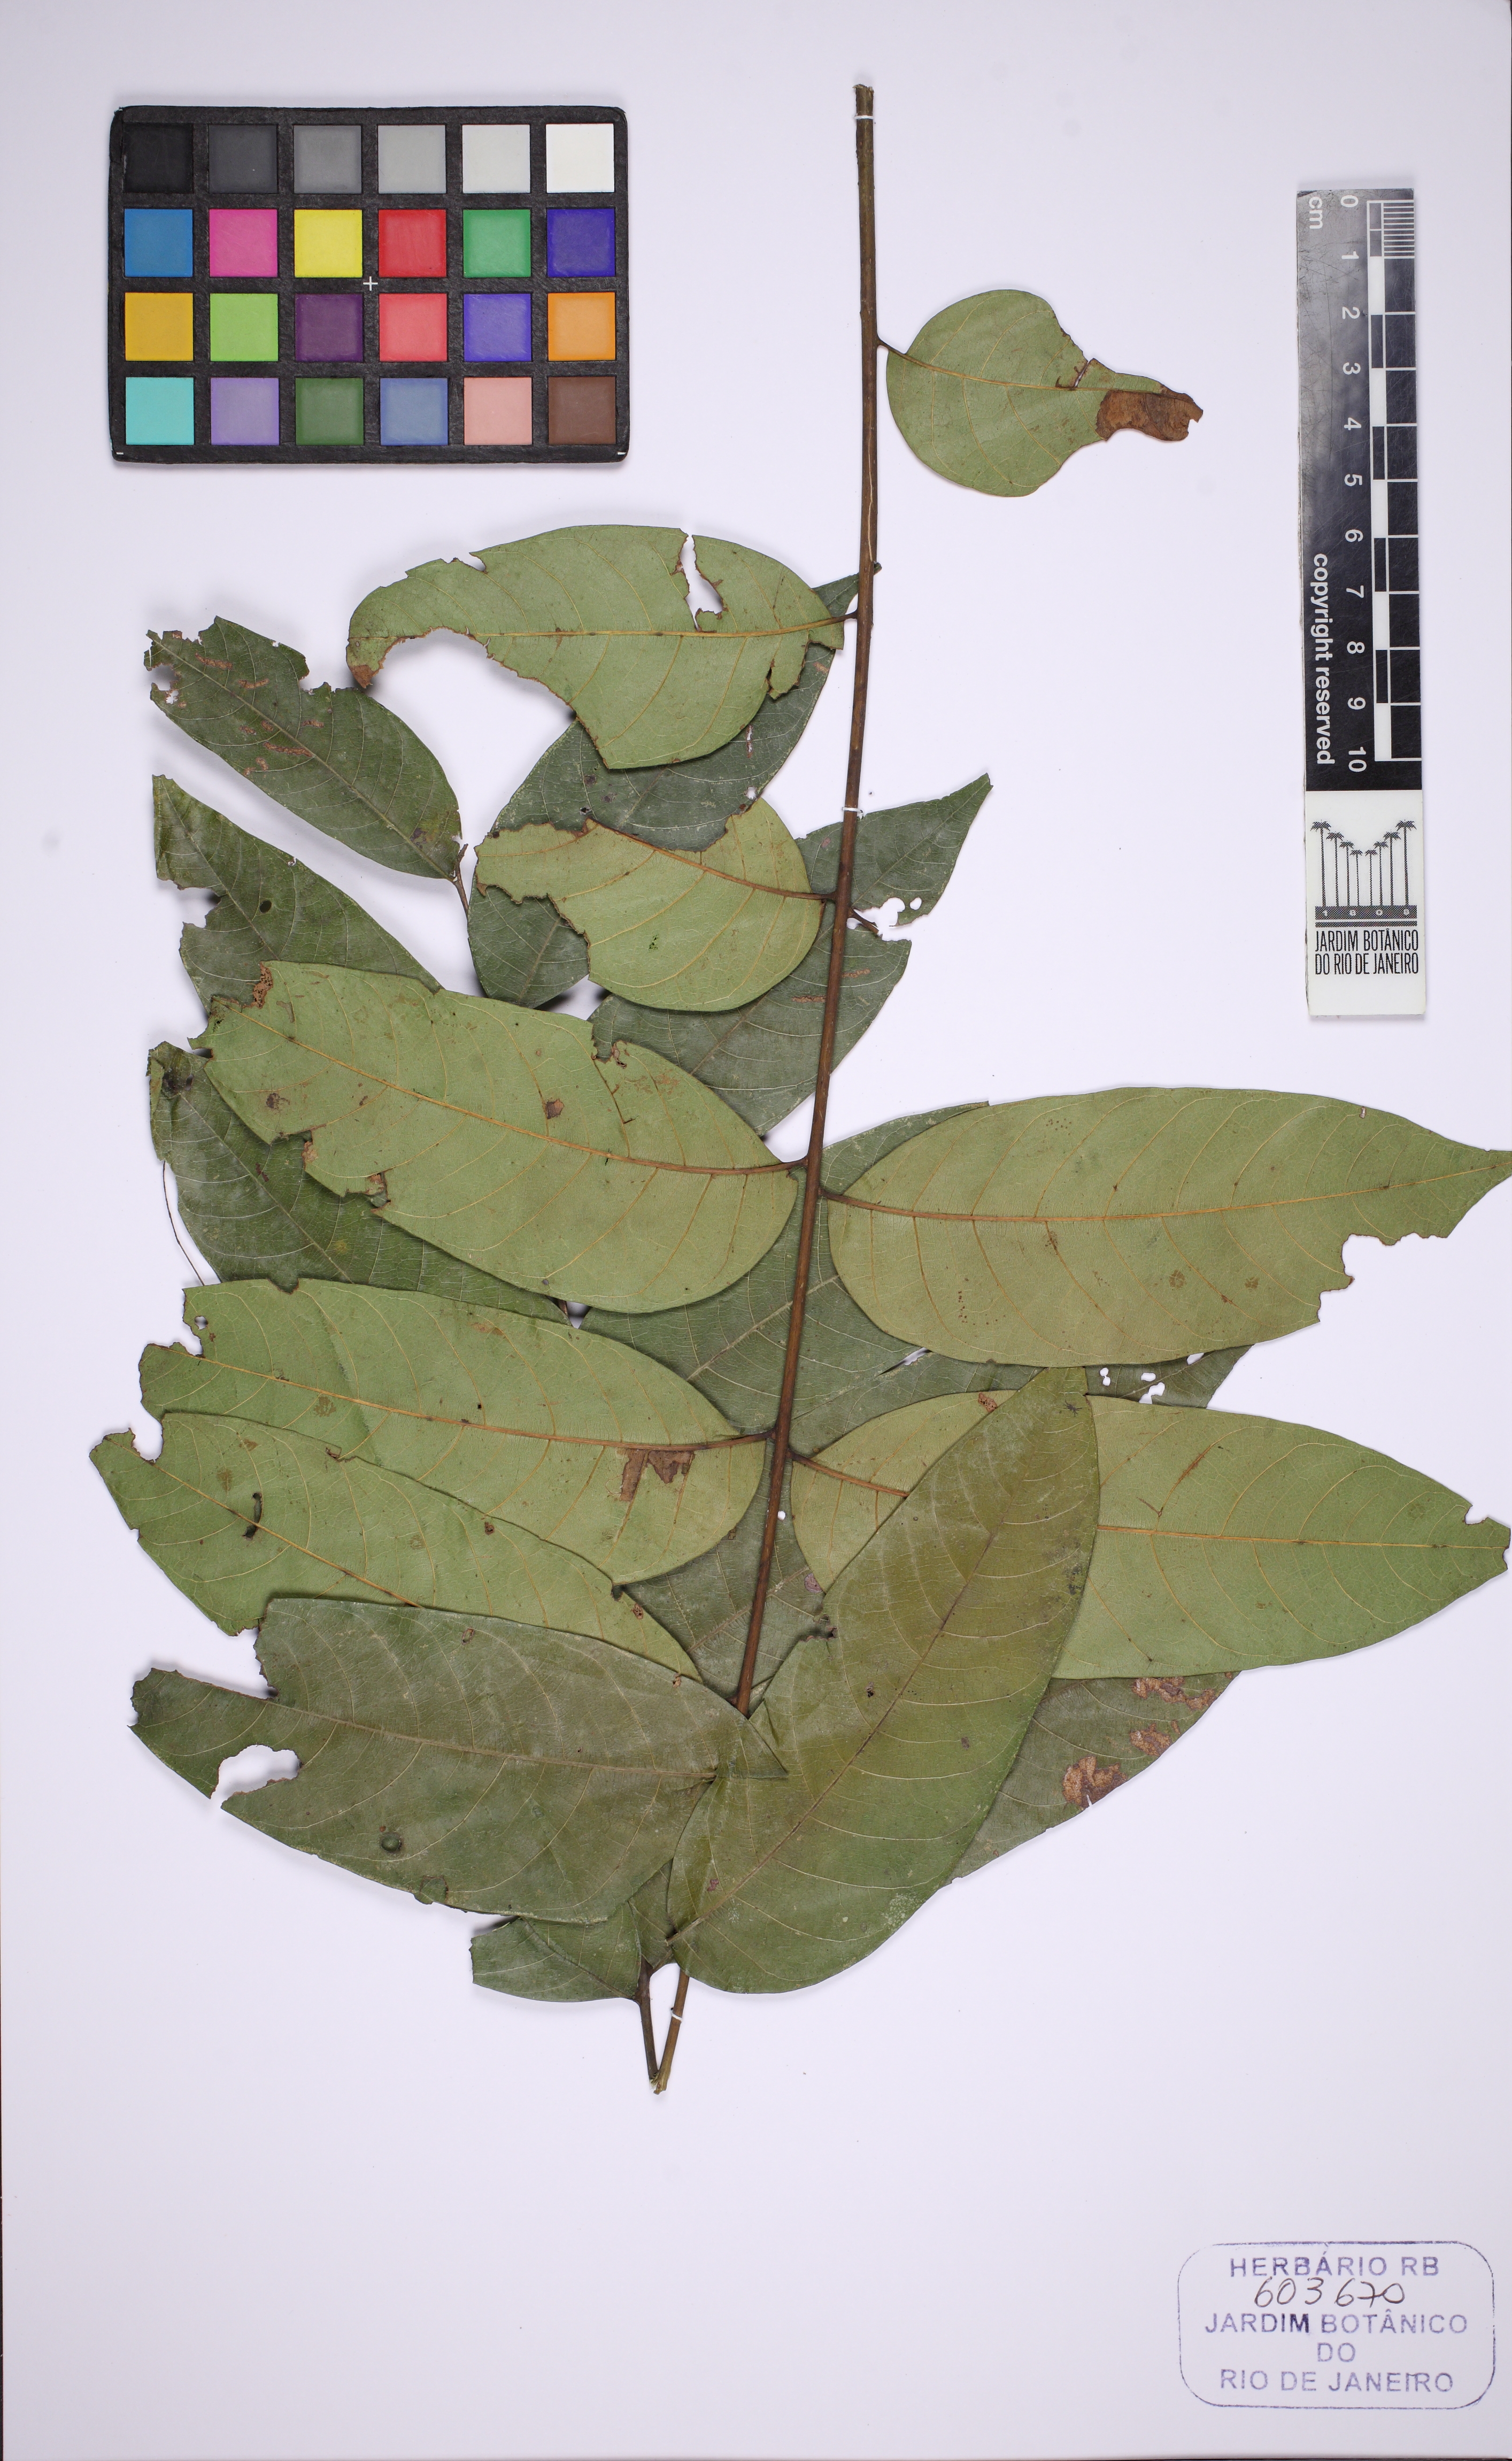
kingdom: Plantae
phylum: Tracheophyta
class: Magnoliopsida
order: Sapindales
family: Meliaceae
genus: Cedrela
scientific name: Cedrela odorata
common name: Red cedar
